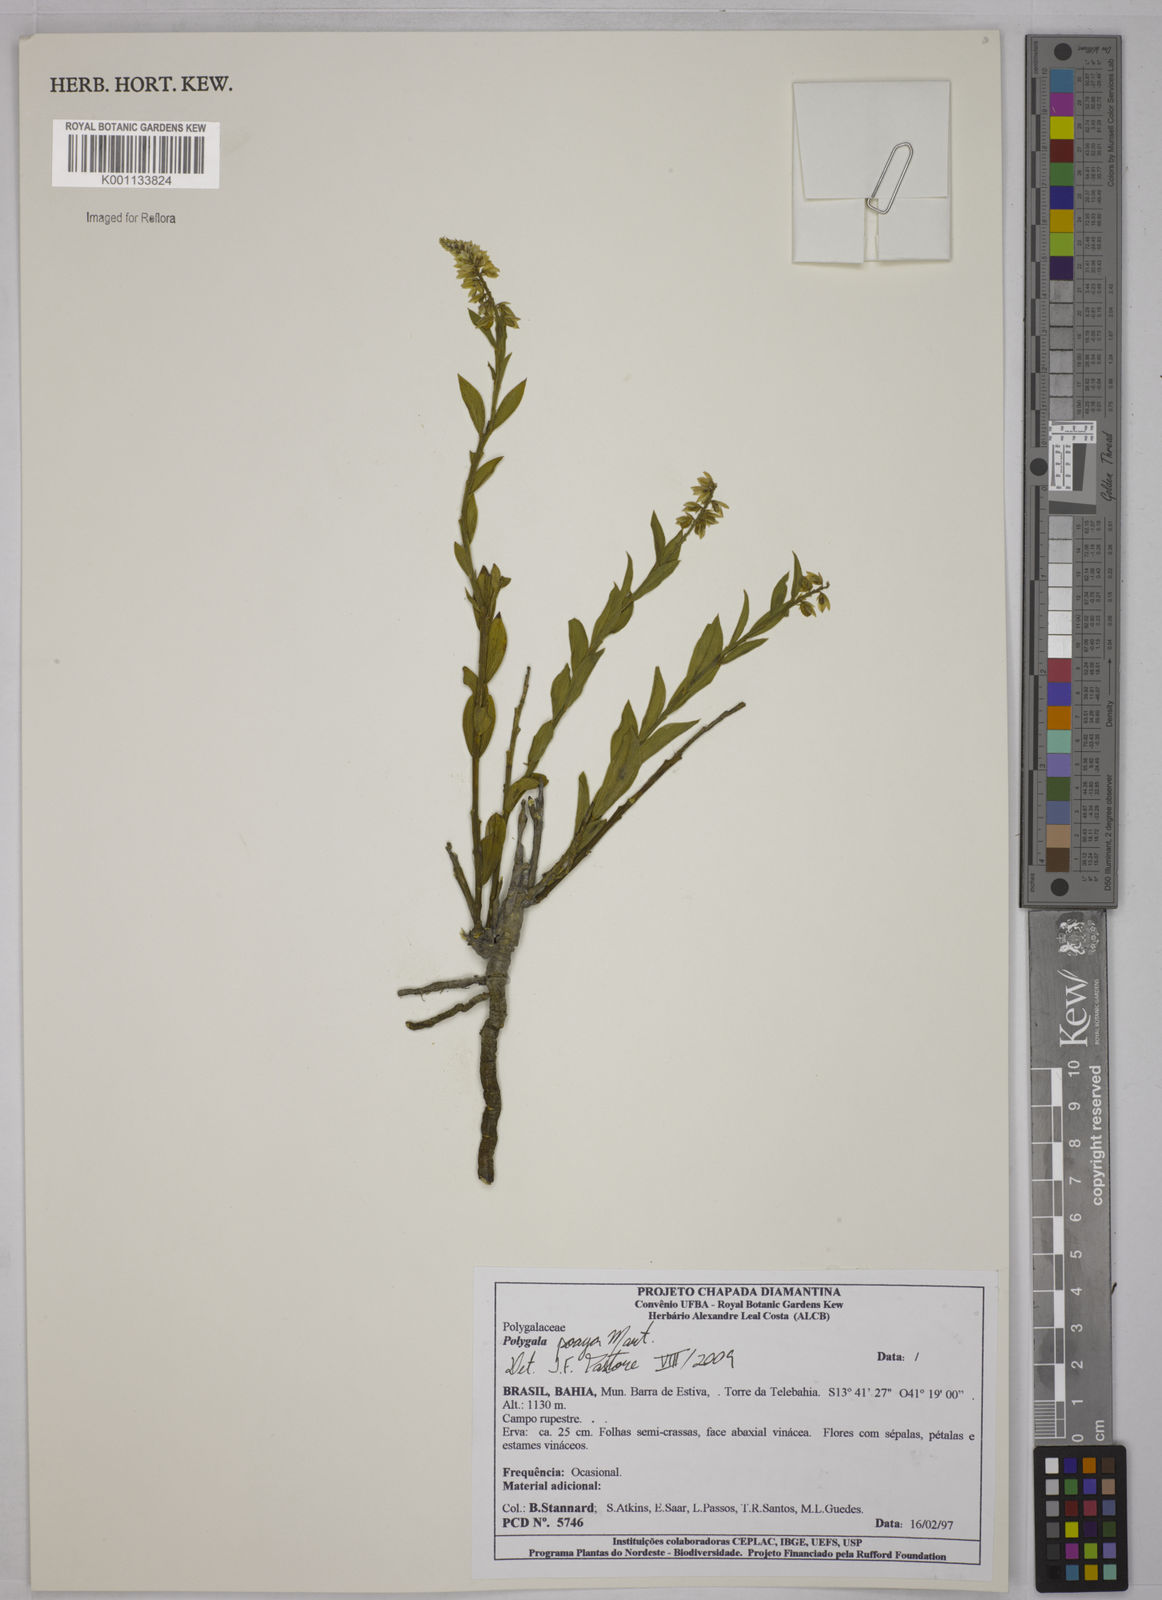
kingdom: Plantae
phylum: Tracheophyta
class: Magnoliopsida
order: Fabales
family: Polygalaceae
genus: Polygala
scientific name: Polygala poaya
